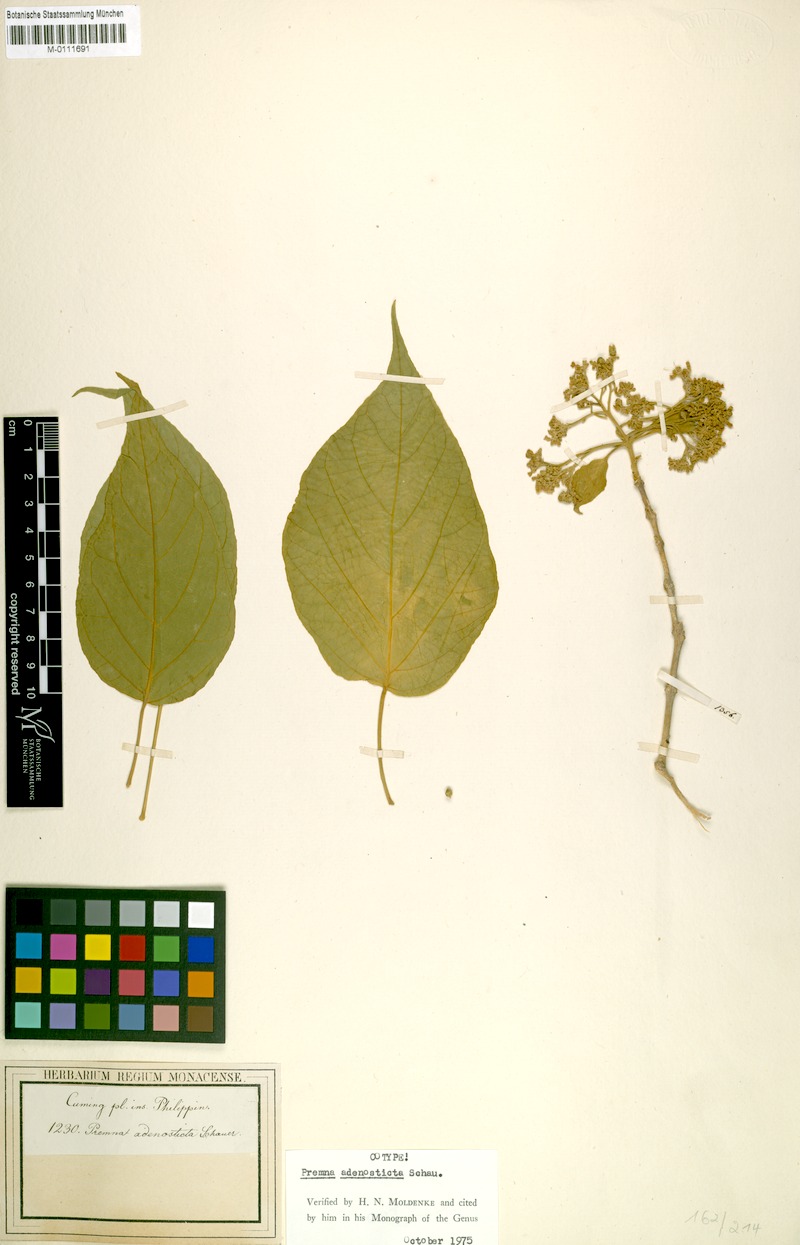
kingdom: Plantae
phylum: Tracheophyta
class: Magnoliopsida
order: Lamiales
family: Lamiaceae
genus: Premna
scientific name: Premna tomentosa
